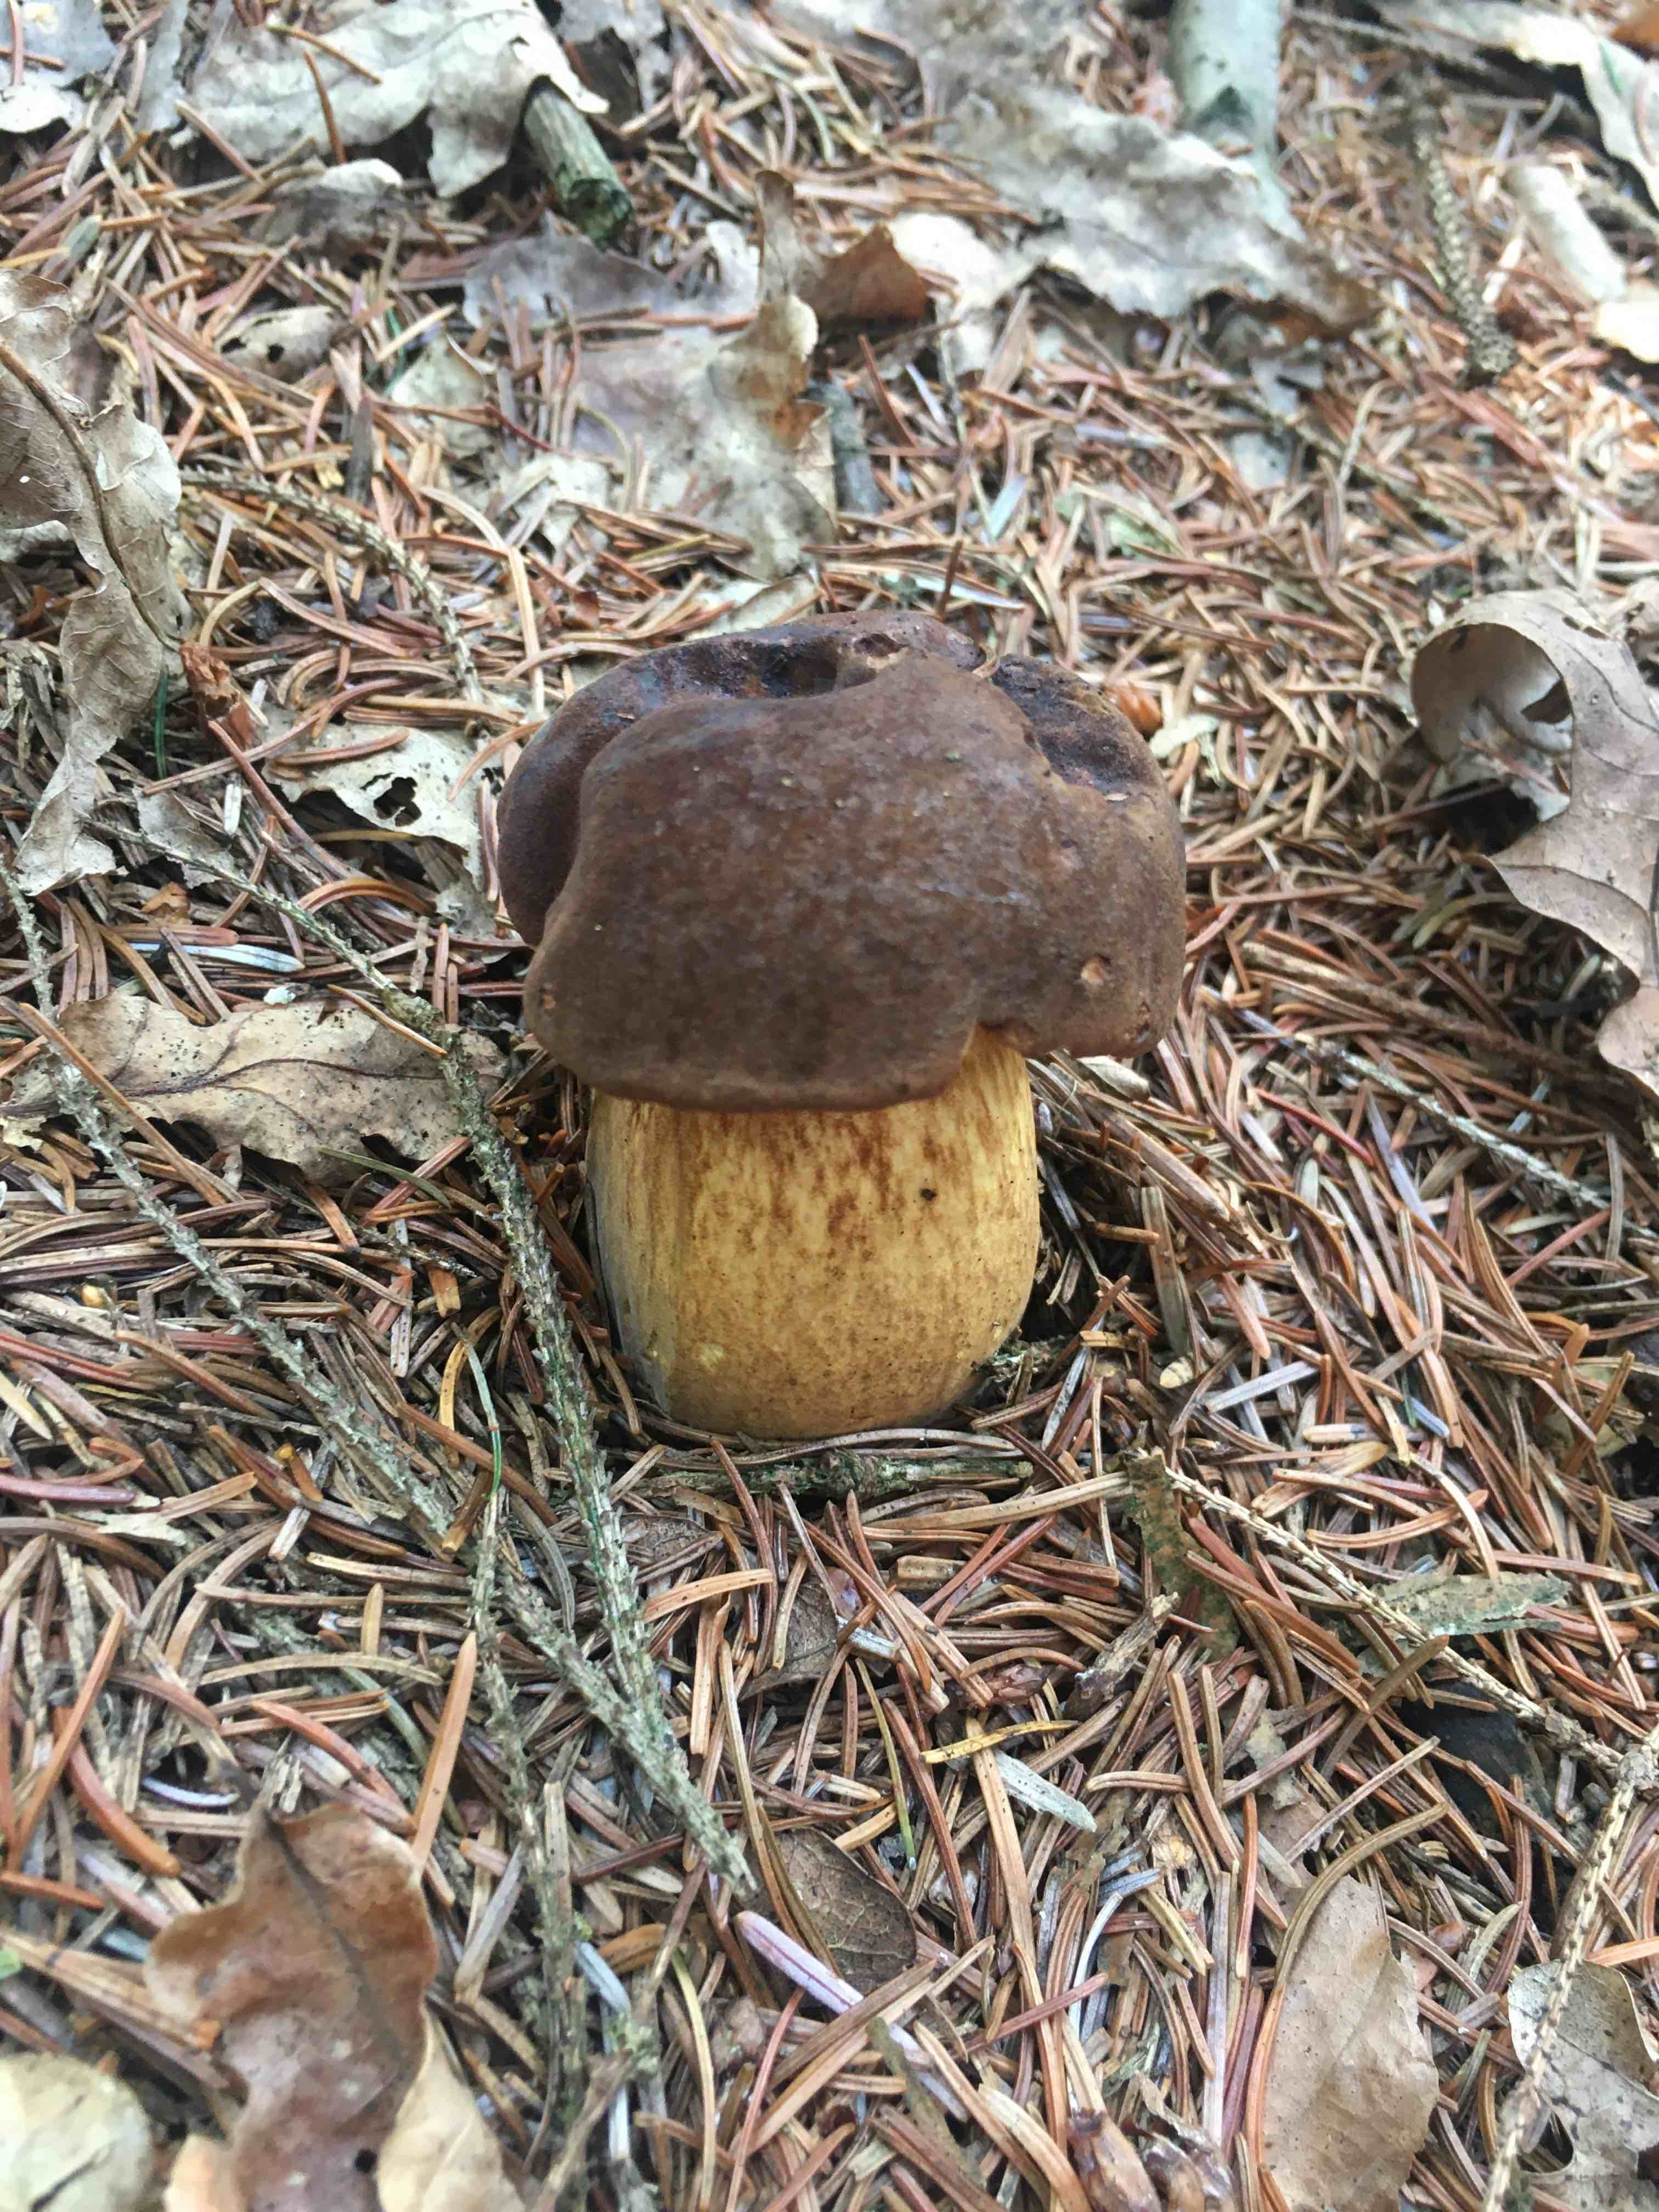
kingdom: Fungi
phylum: Basidiomycota
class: Agaricomycetes
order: Boletales
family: Boletaceae
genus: Imleria
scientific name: Imleria badia
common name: brunstokket rørhat
